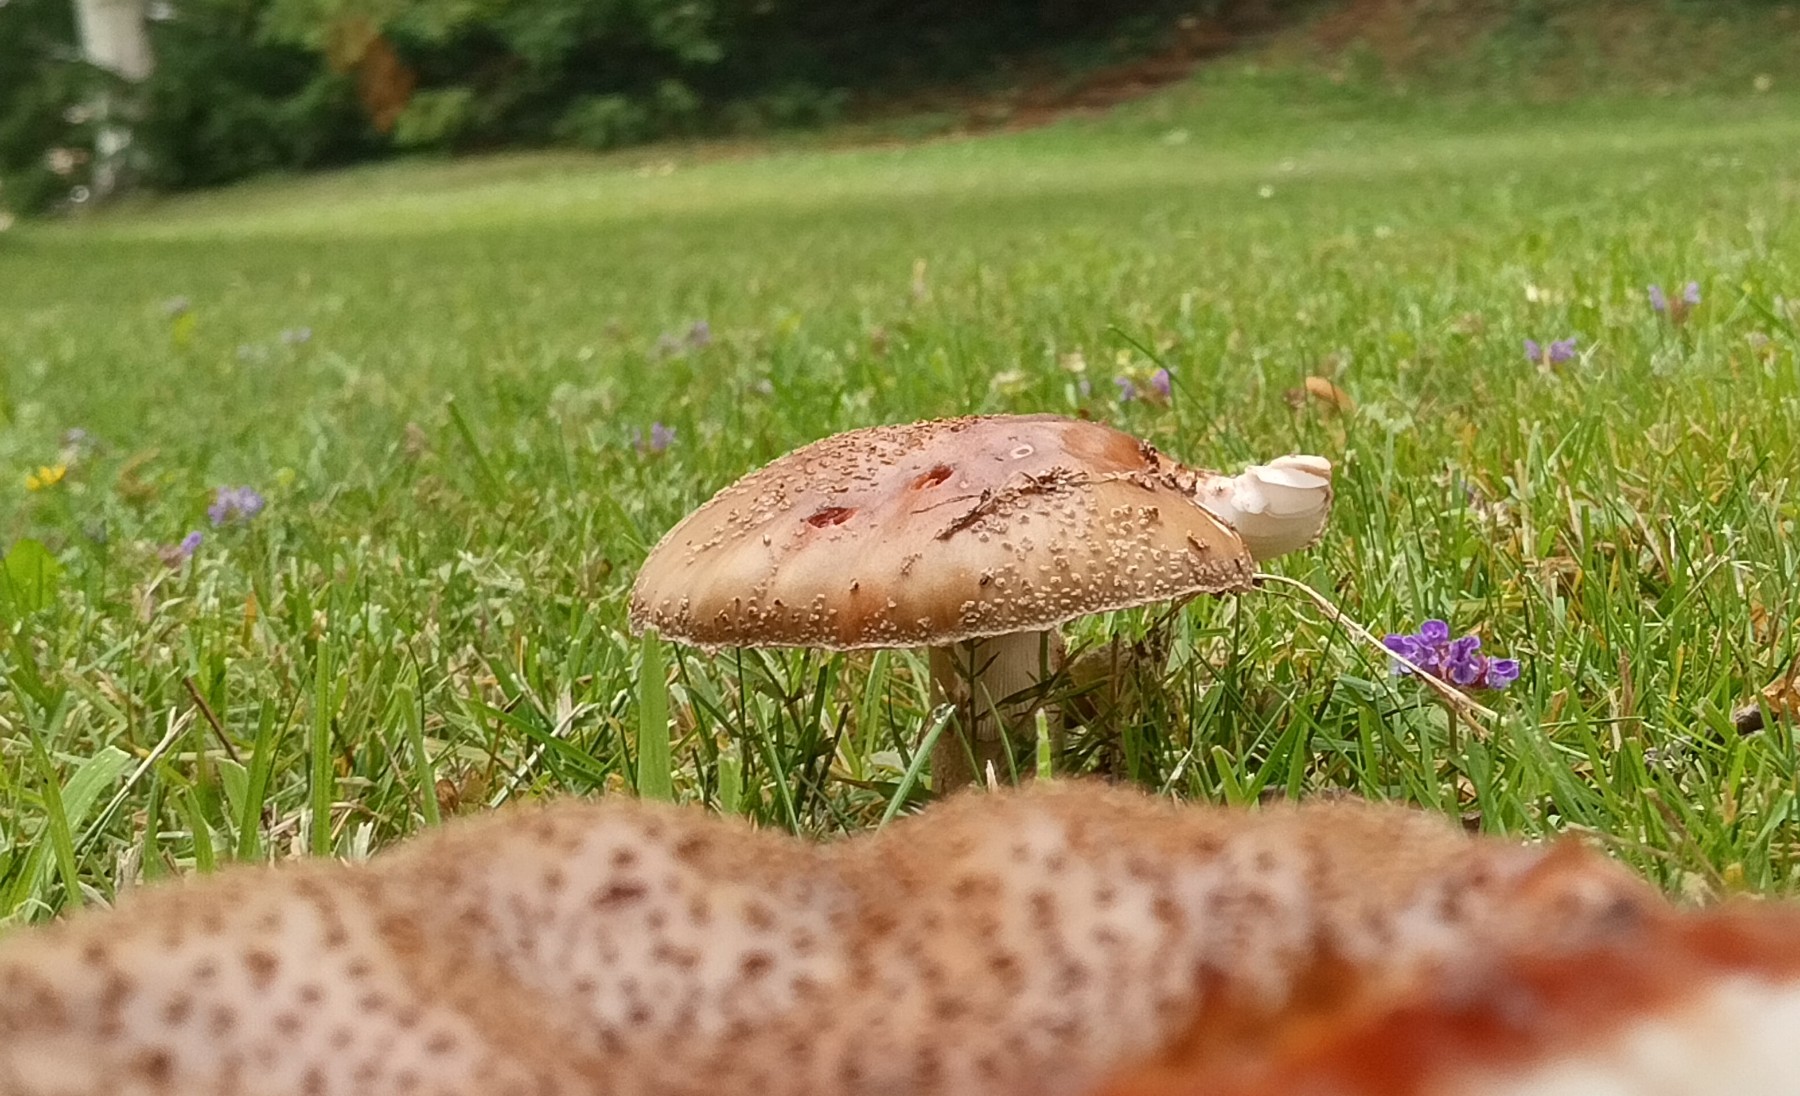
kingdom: Fungi
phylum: Basidiomycota
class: Agaricomycetes
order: Agaricales
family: Amanitaceae
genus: Amanita
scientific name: Amanita rubescens
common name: rødmende fluesvamp
